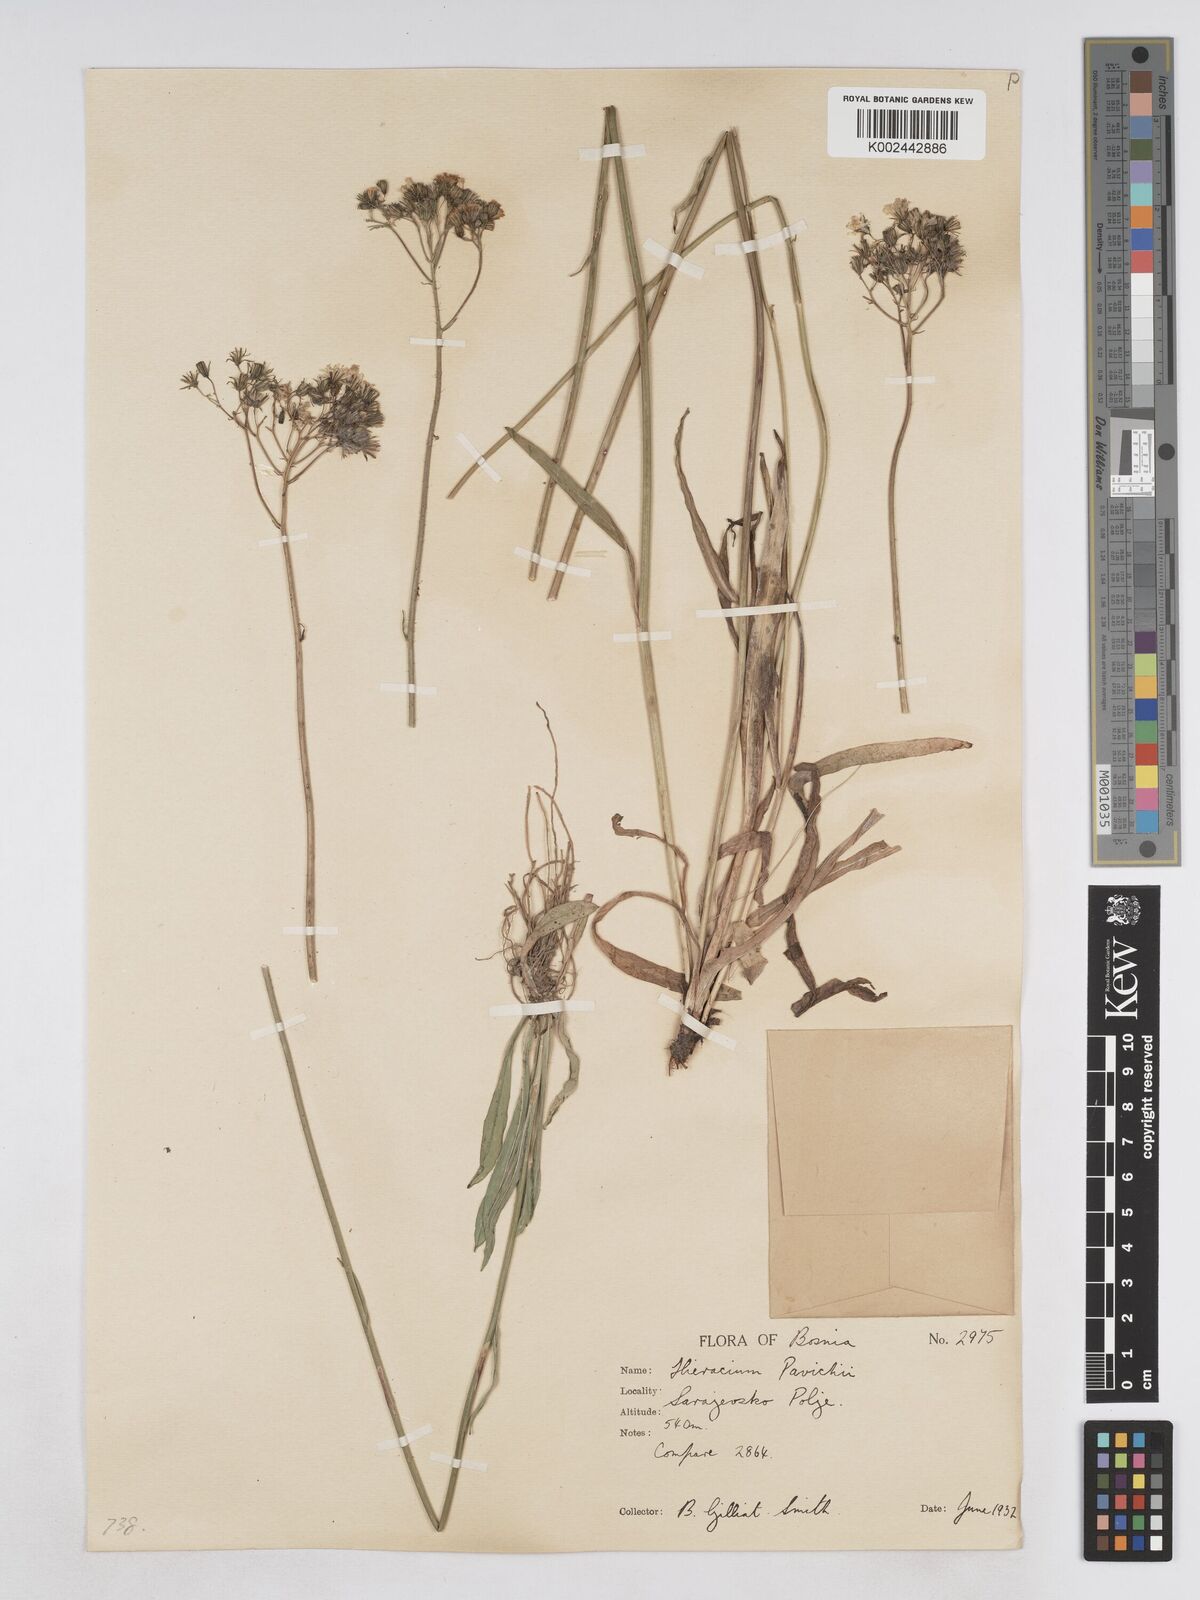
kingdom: Plantae
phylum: Tracheophyta
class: Magnoliopsida
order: Asterales
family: Asteraceae
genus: Pilosella
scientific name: Pilosella pavichii
